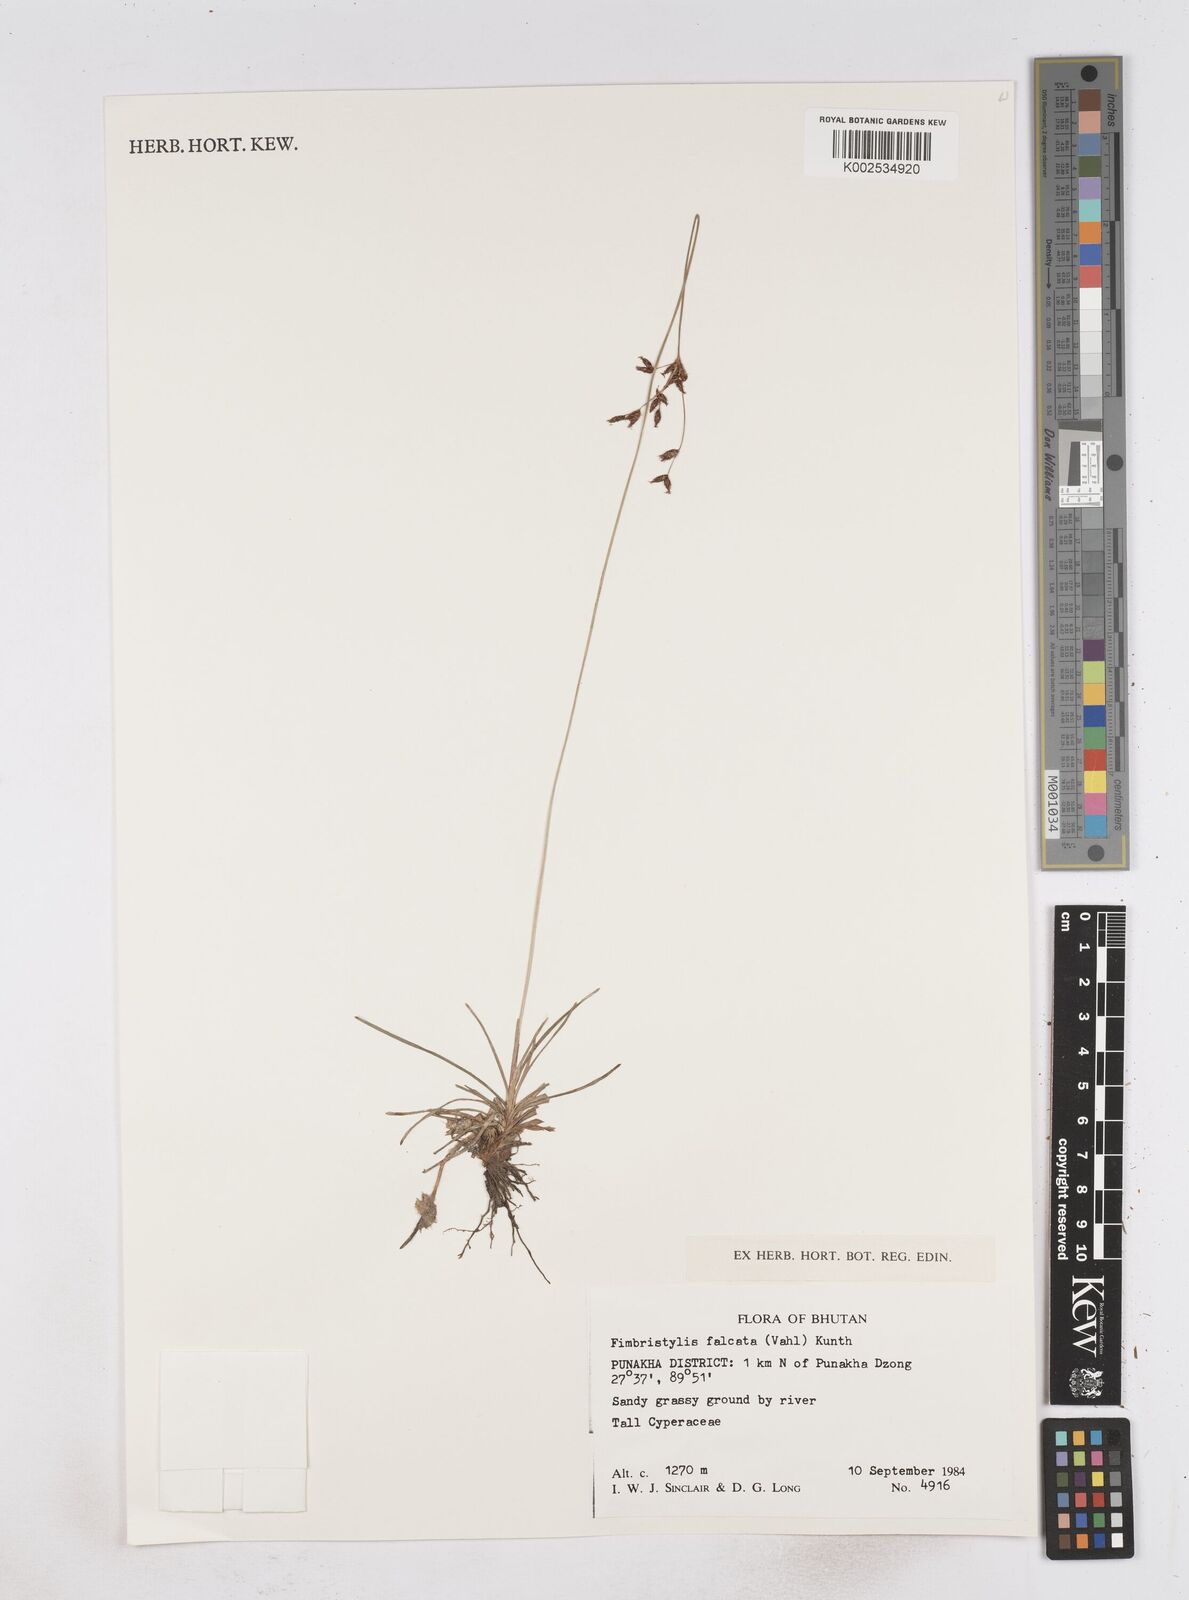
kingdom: Plantae
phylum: Tracheophyta
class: Liliopsida
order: Poales
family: Cyperaceae
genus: Fimbristylis
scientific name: Fimbristylis falcata
